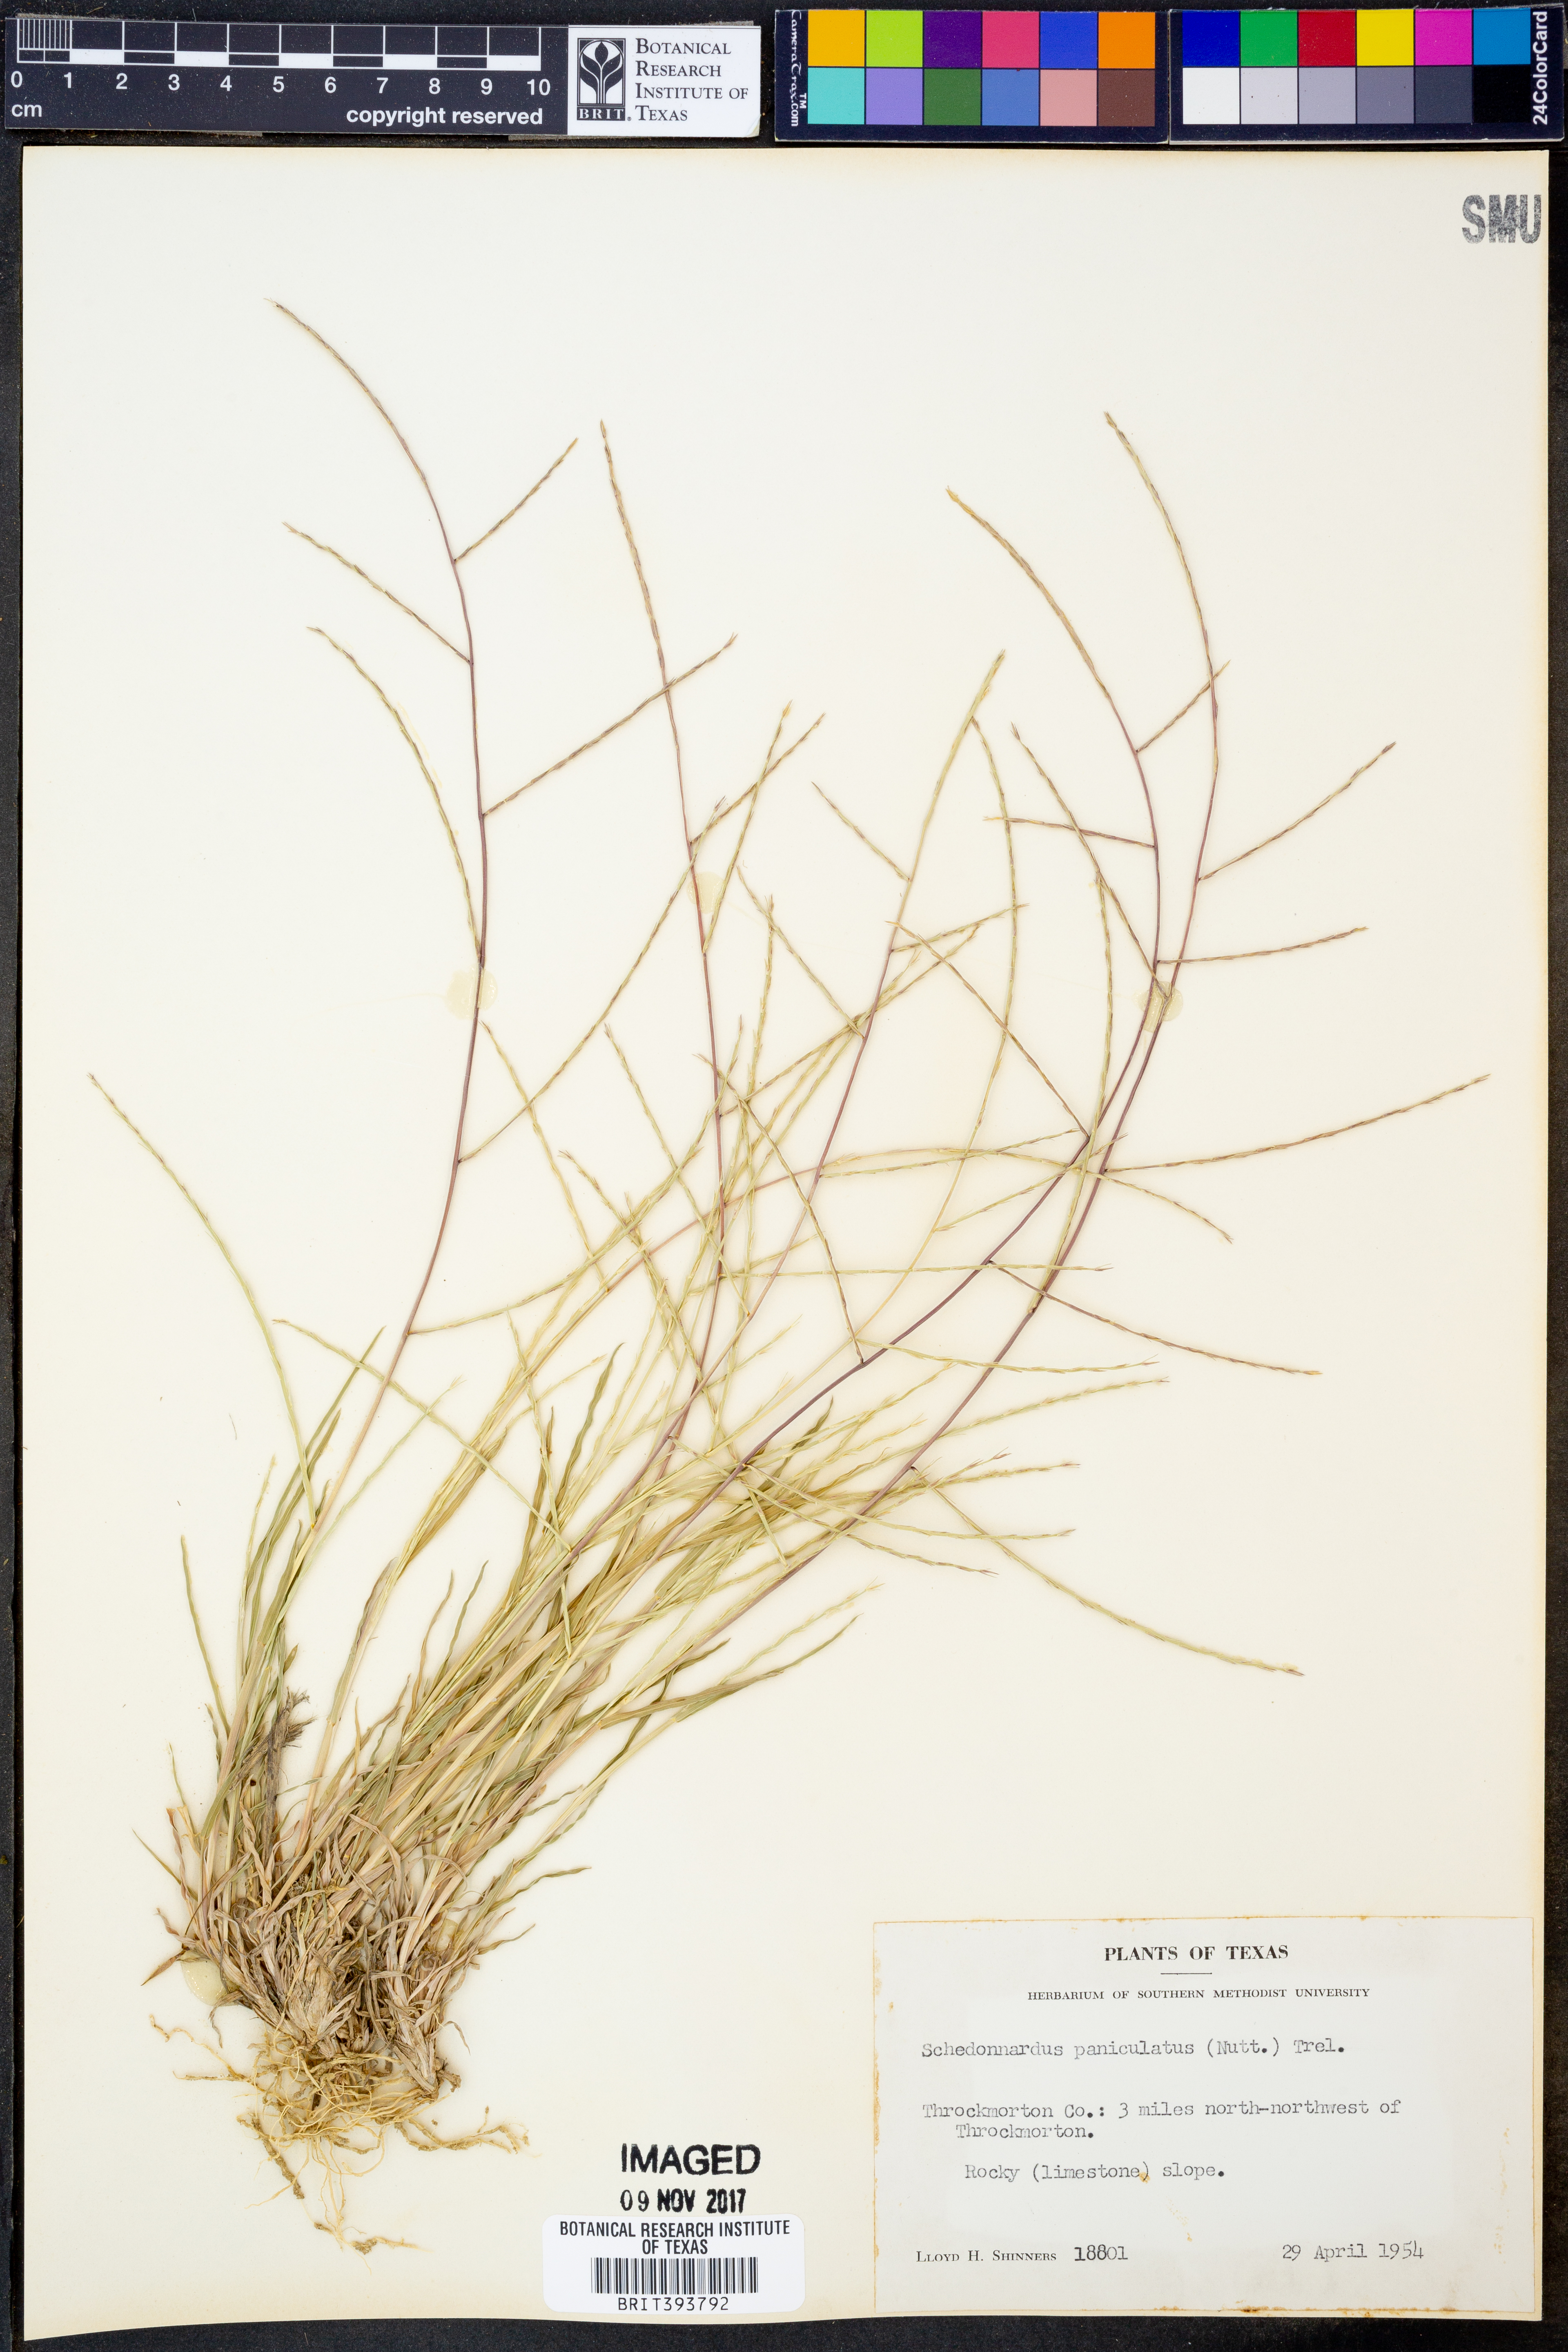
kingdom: Plantae
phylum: Tracheophyta
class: Liliopsida
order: Poales
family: Poaceae
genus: Muhlenbergia
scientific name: Muhlenbergia paniculata
